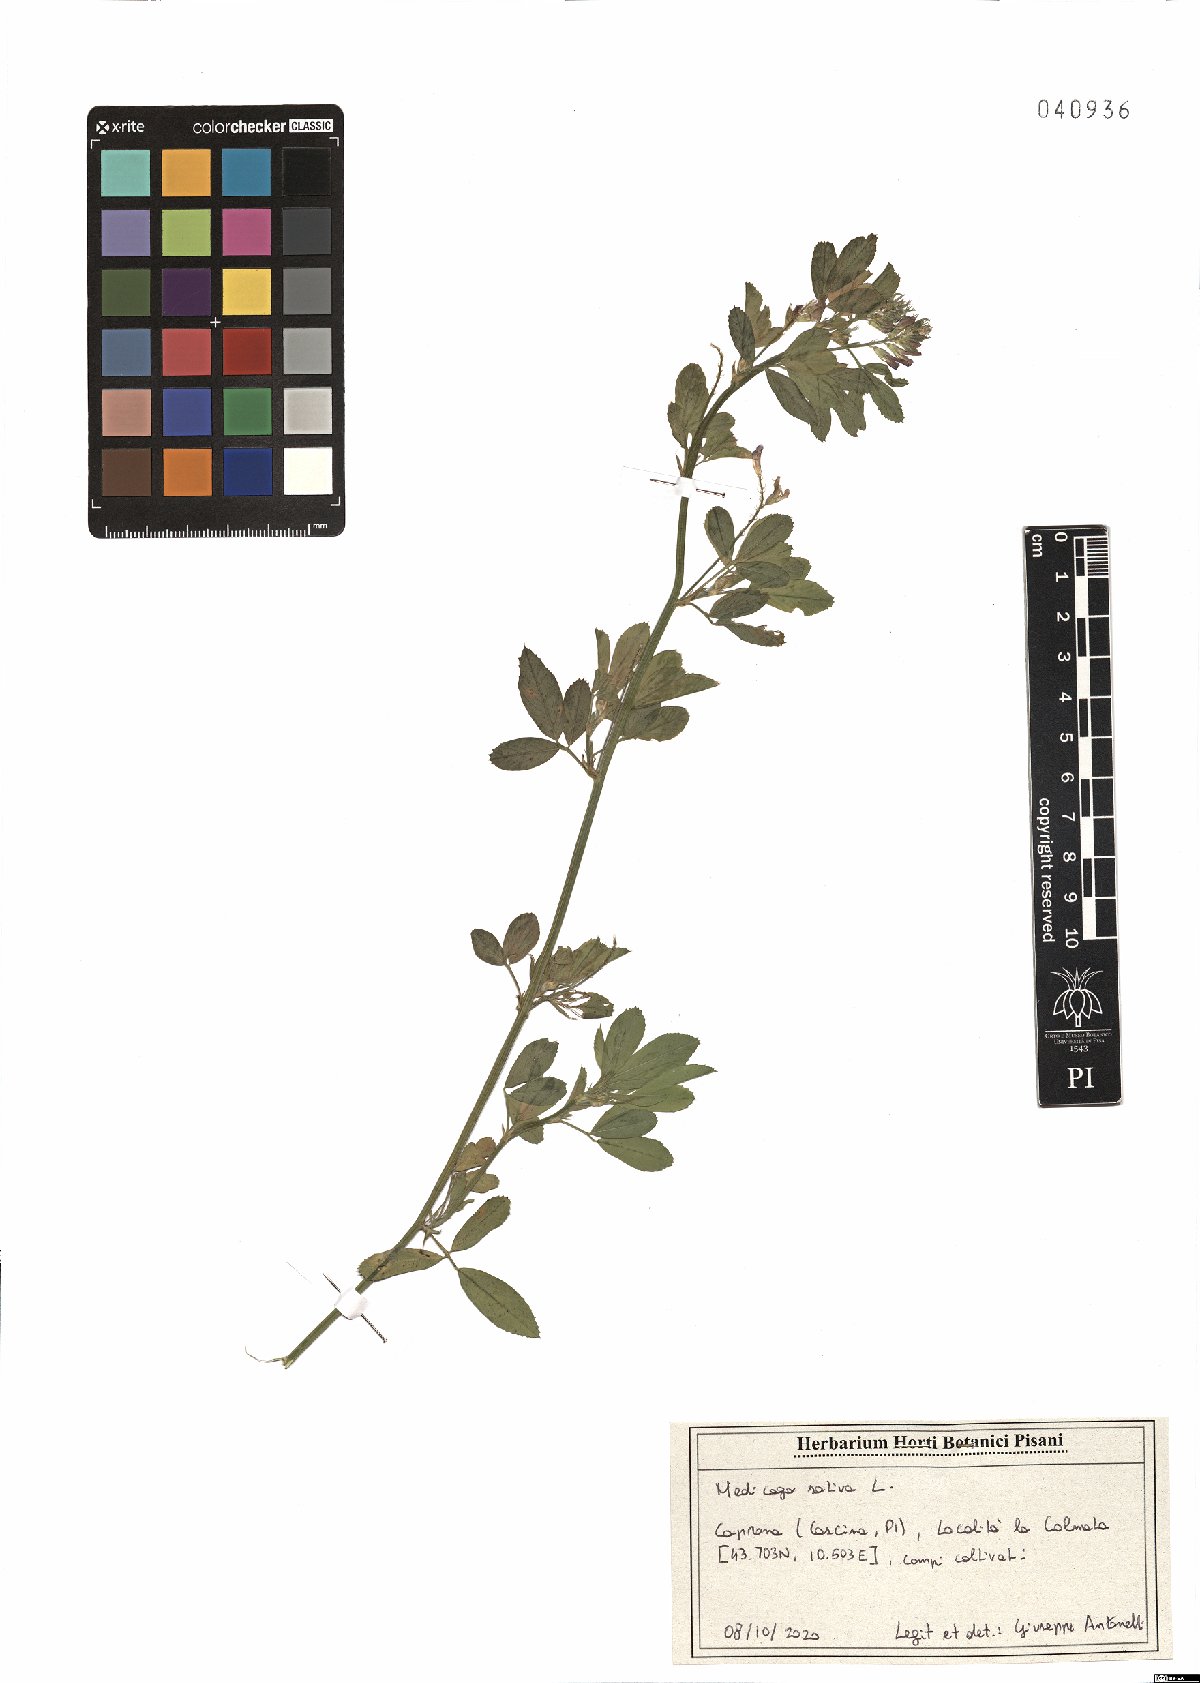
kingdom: Plantae
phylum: Tracheophyta
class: Magnoliopsida
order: Fabales
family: Fabaceae
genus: Medicago
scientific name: Medicago sativa
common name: Alfalfa
